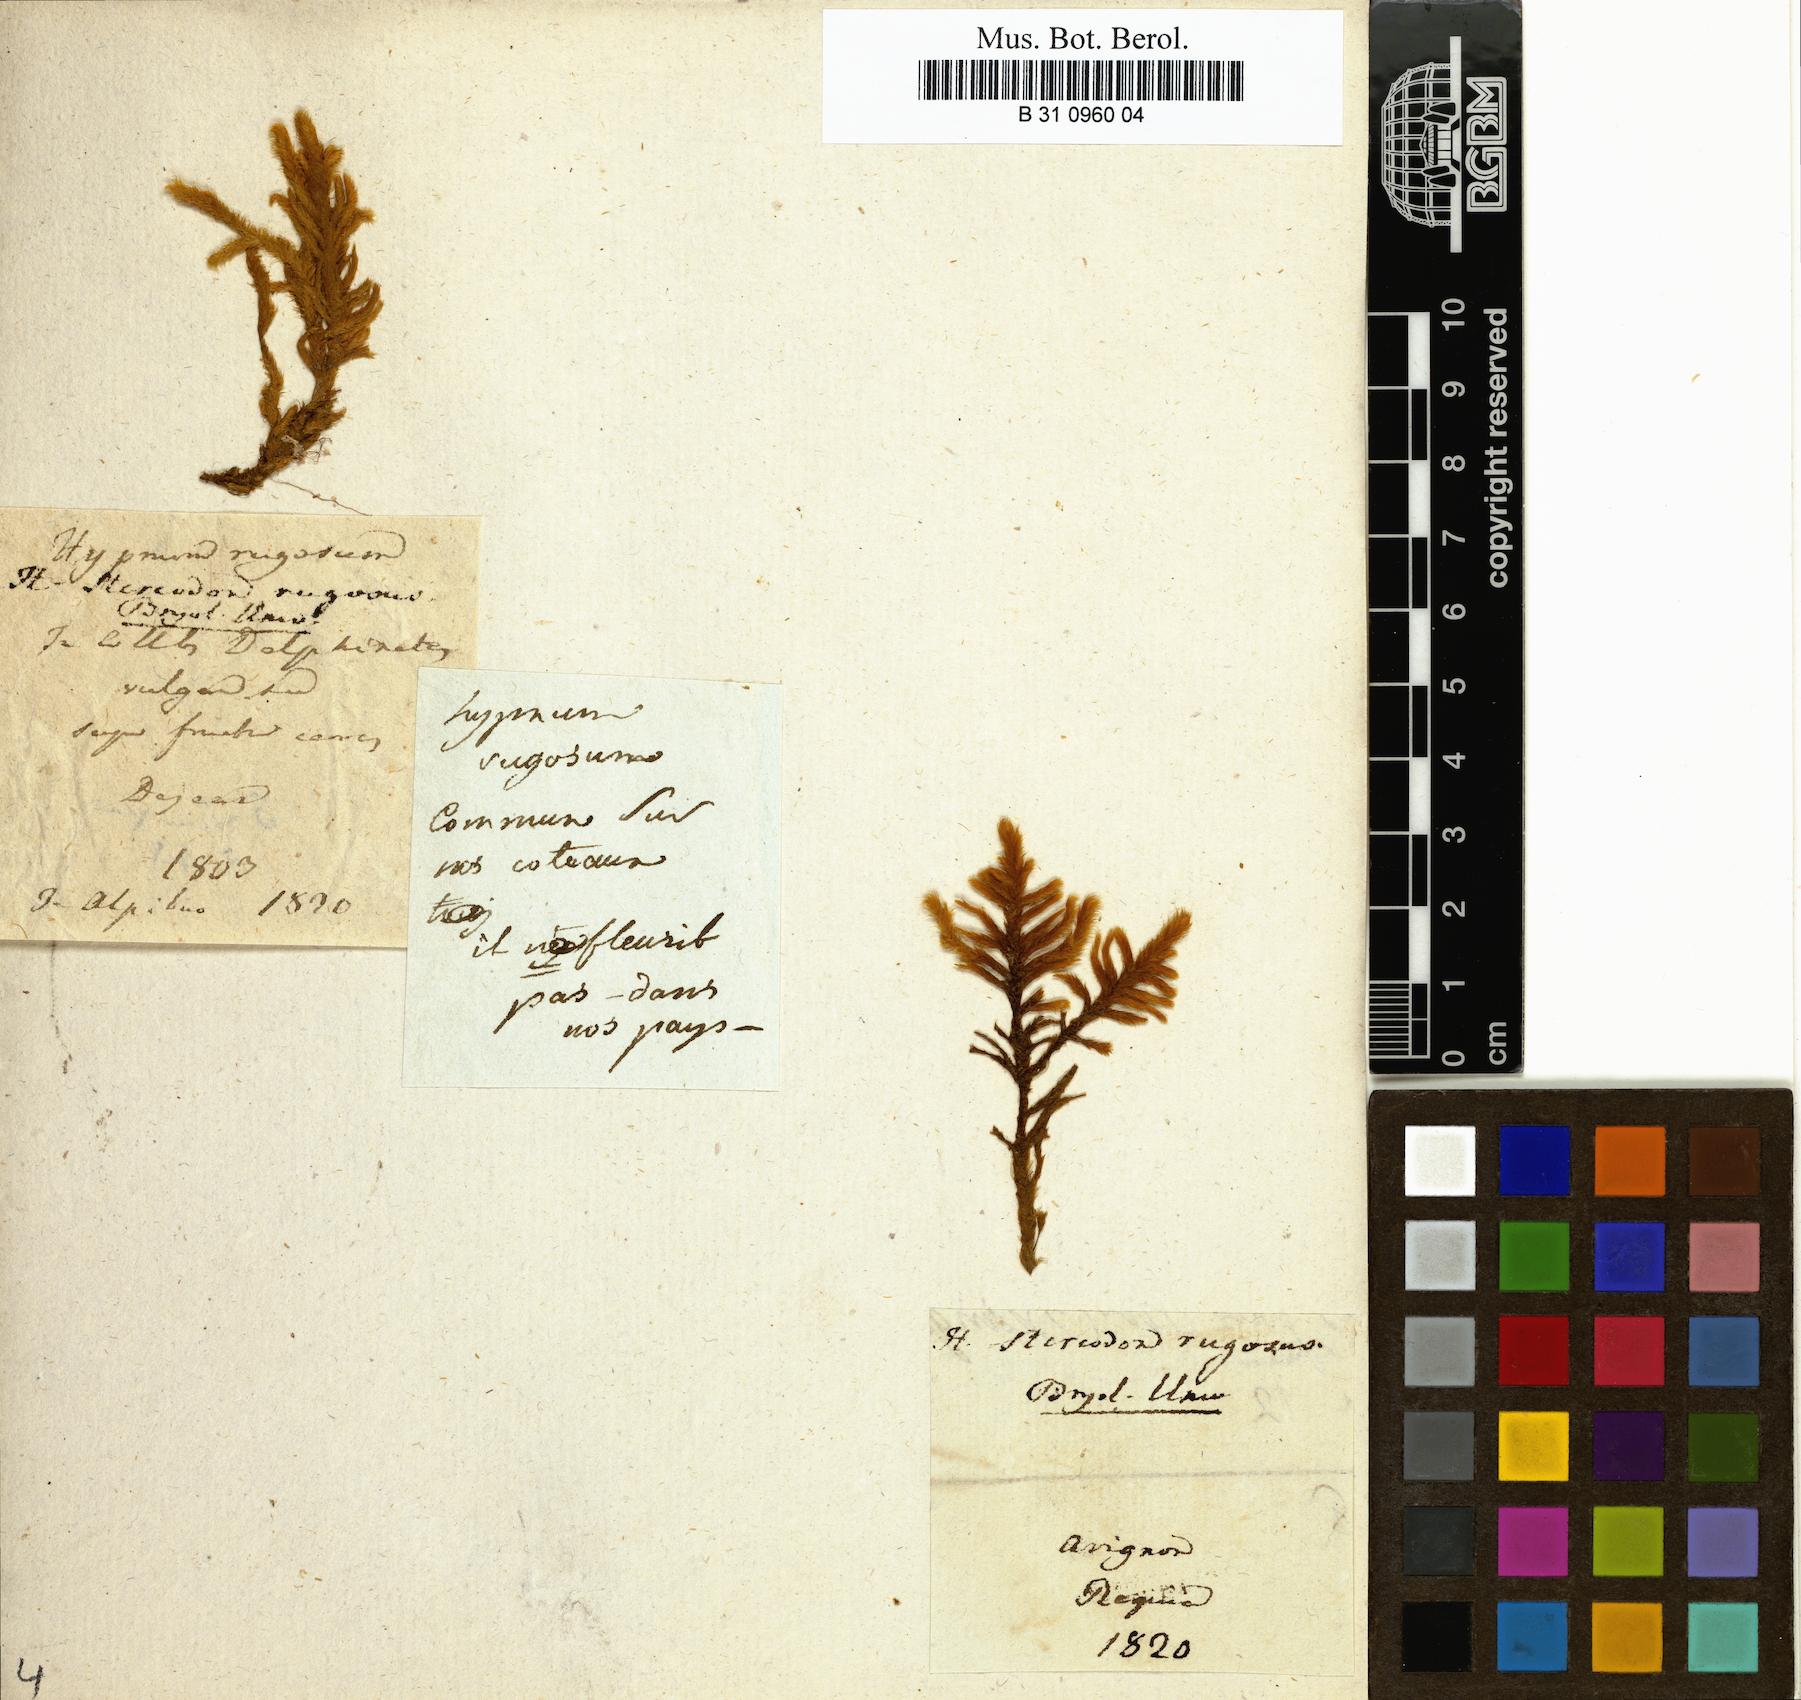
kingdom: Plantae
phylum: Bryophyta
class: Bryopsida
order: Hypnales
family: Rhytidiaceae
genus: Rhytidium
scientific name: Rhytidium rugosum
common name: Wrinkle-leaved moss
